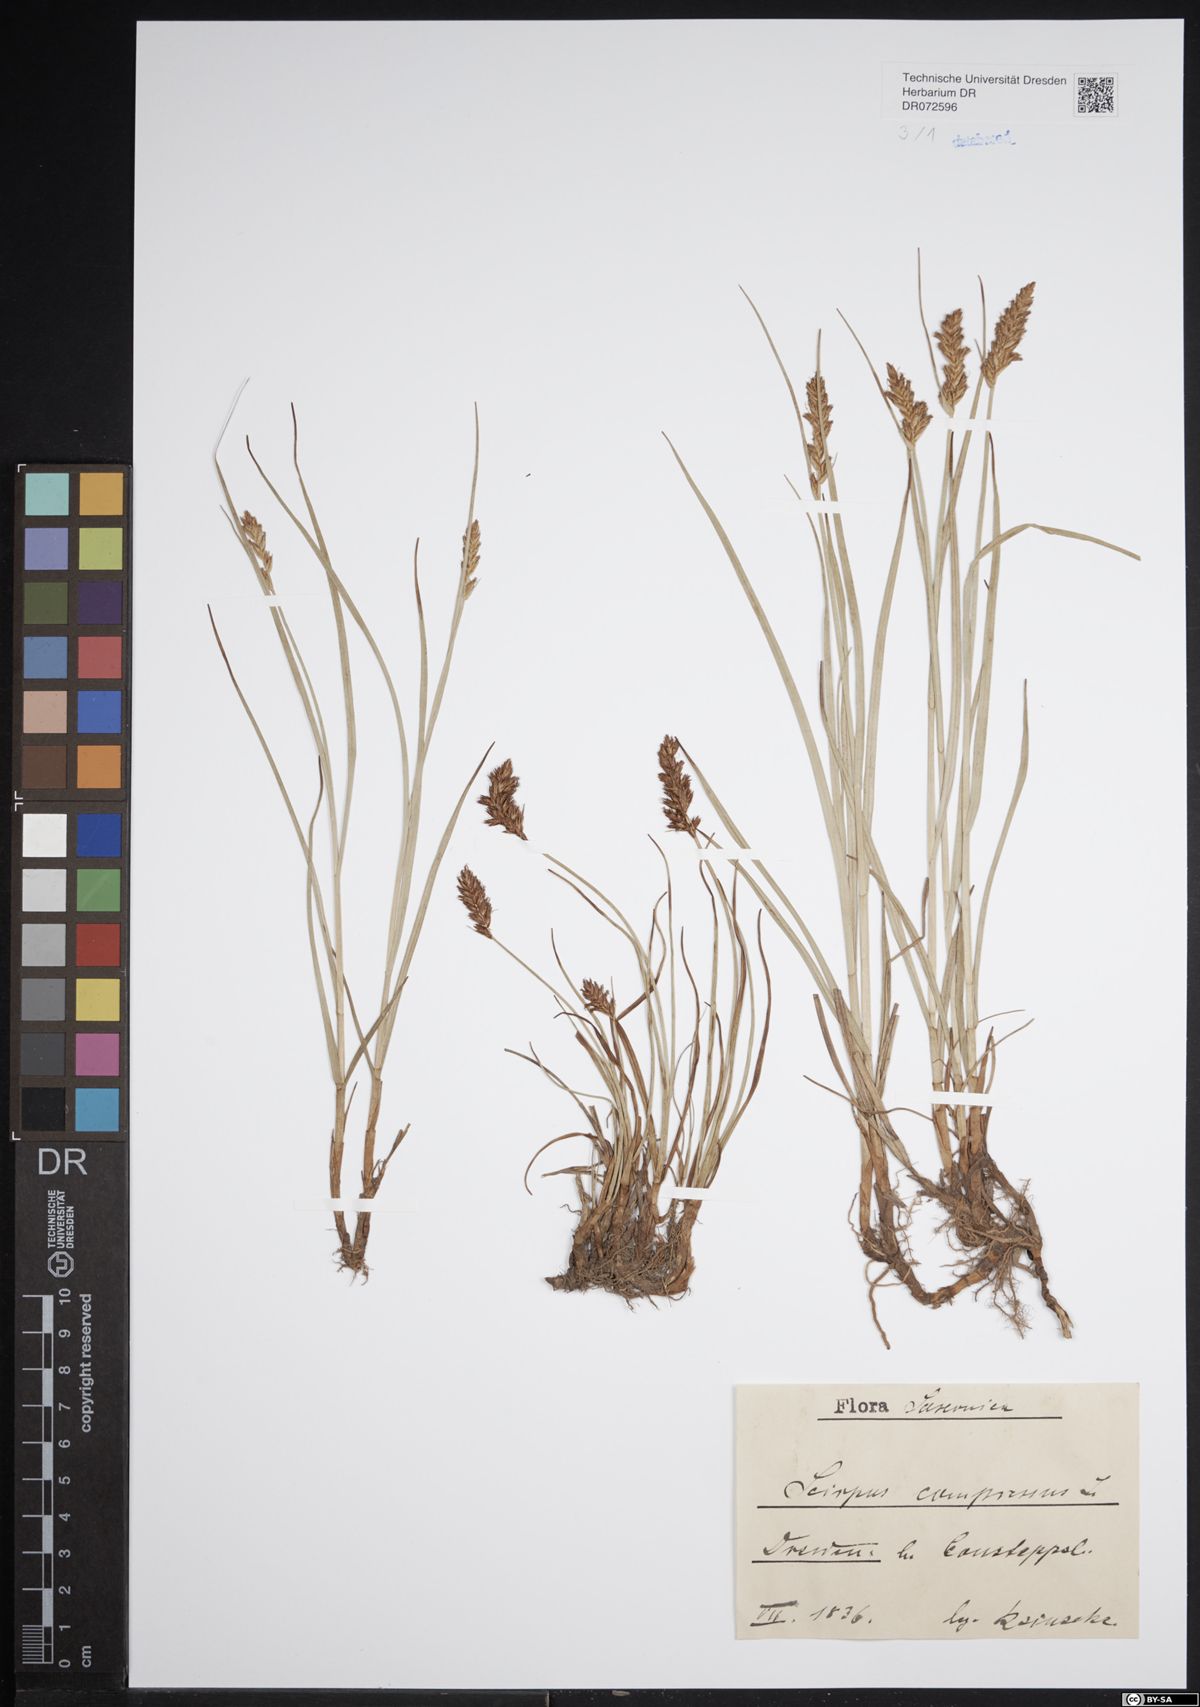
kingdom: Plantae
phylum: Tracheophyta
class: Liliopsida
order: Poales
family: Cyperaceae
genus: Blysmus
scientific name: Blysmus compressus
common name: Flat-sedge
